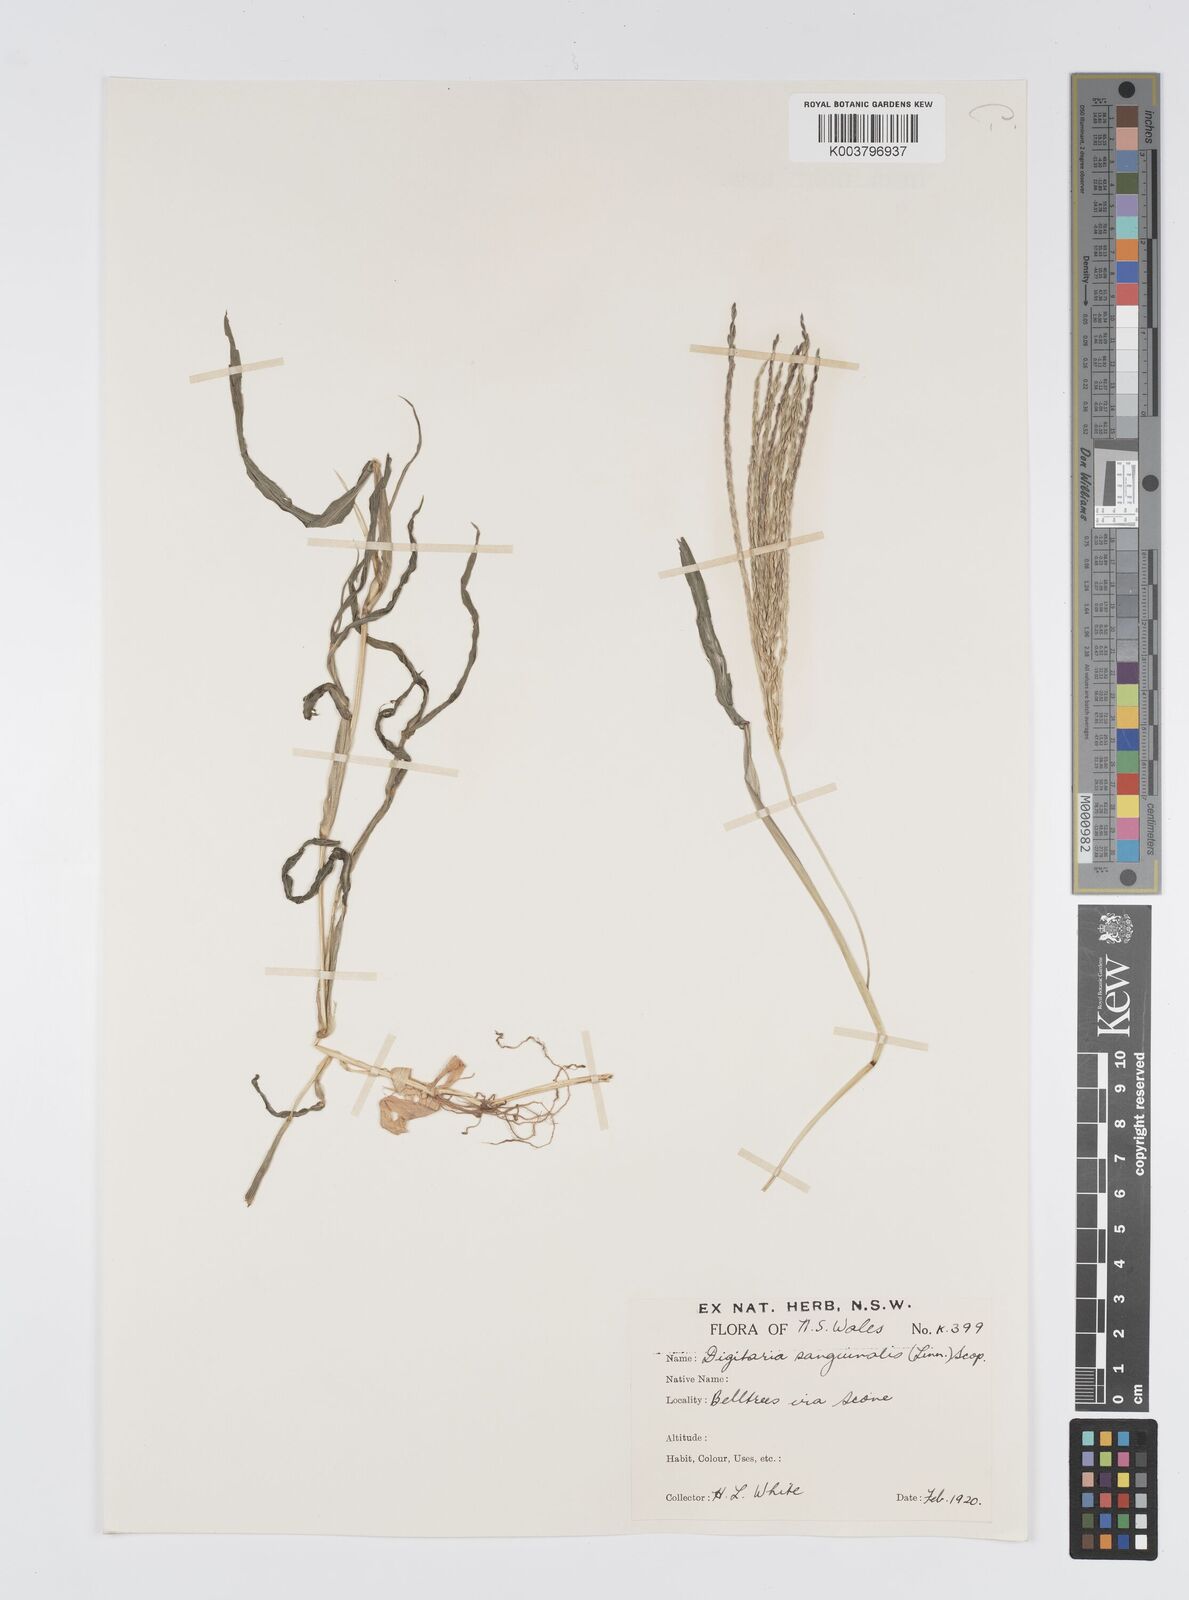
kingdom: Plantae
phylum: Tracheophyta
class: Liliopsida
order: Poales
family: Poaceae
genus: Digitaria
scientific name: Digitaria sanguinalis
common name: Hairy crabgrass
